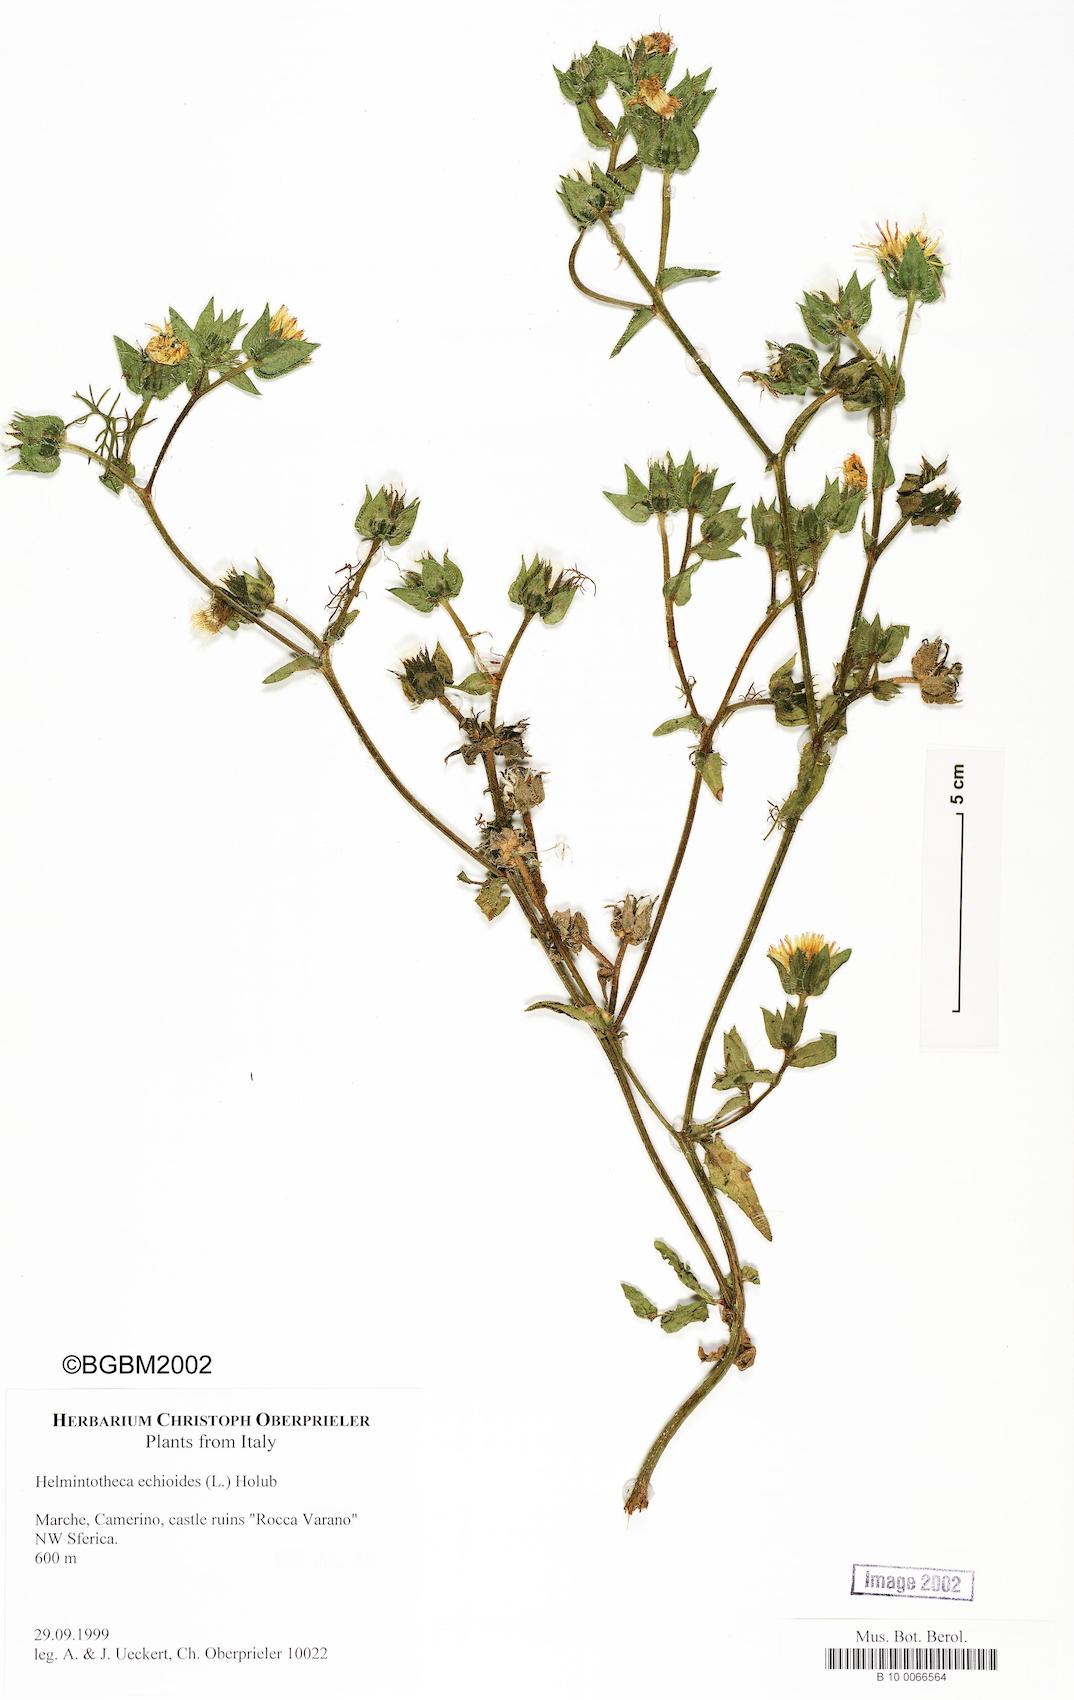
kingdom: Plantae
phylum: Tracheophyta
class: Magnoliopsida
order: Asterales
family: Asteraceae
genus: Helminthotheca
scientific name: Helminthotheca echioides
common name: Ox-tongue
